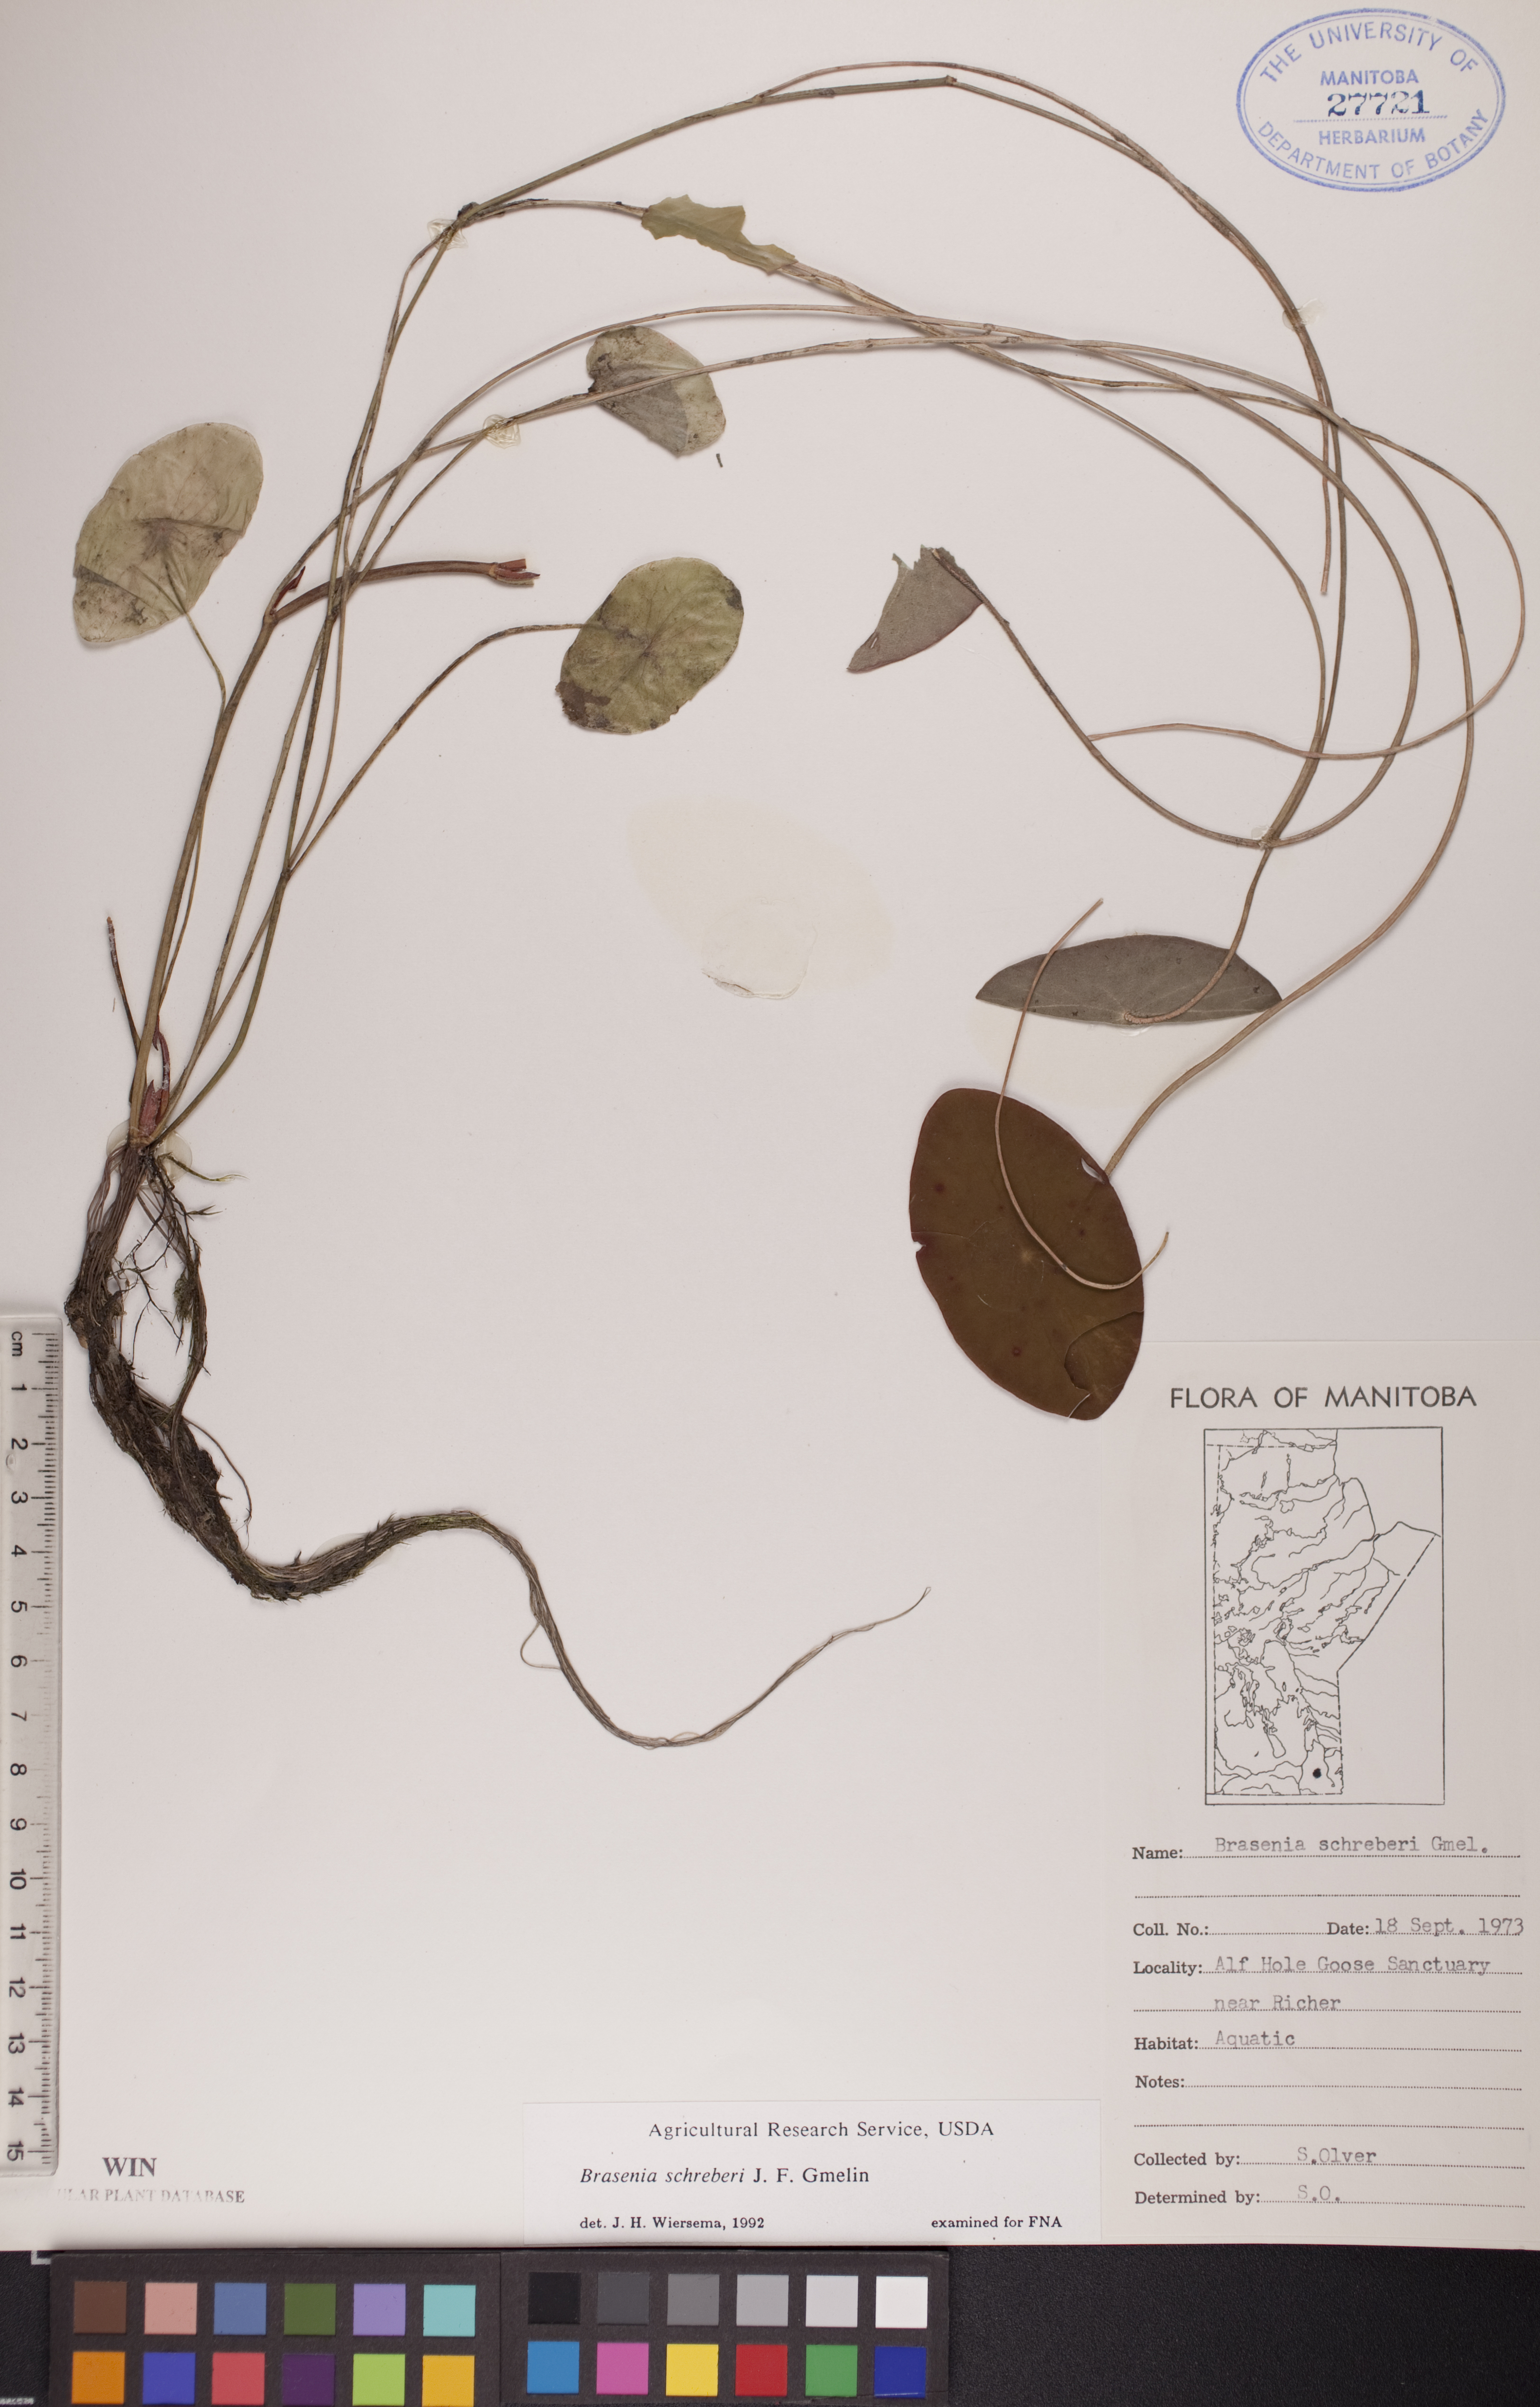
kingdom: Plantae
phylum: Tracheophyta
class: Magnoliopsida
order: Nymphaeales
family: Cabombaceae
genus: Brasenia
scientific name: Brasenia schreberi
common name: Water-shield
